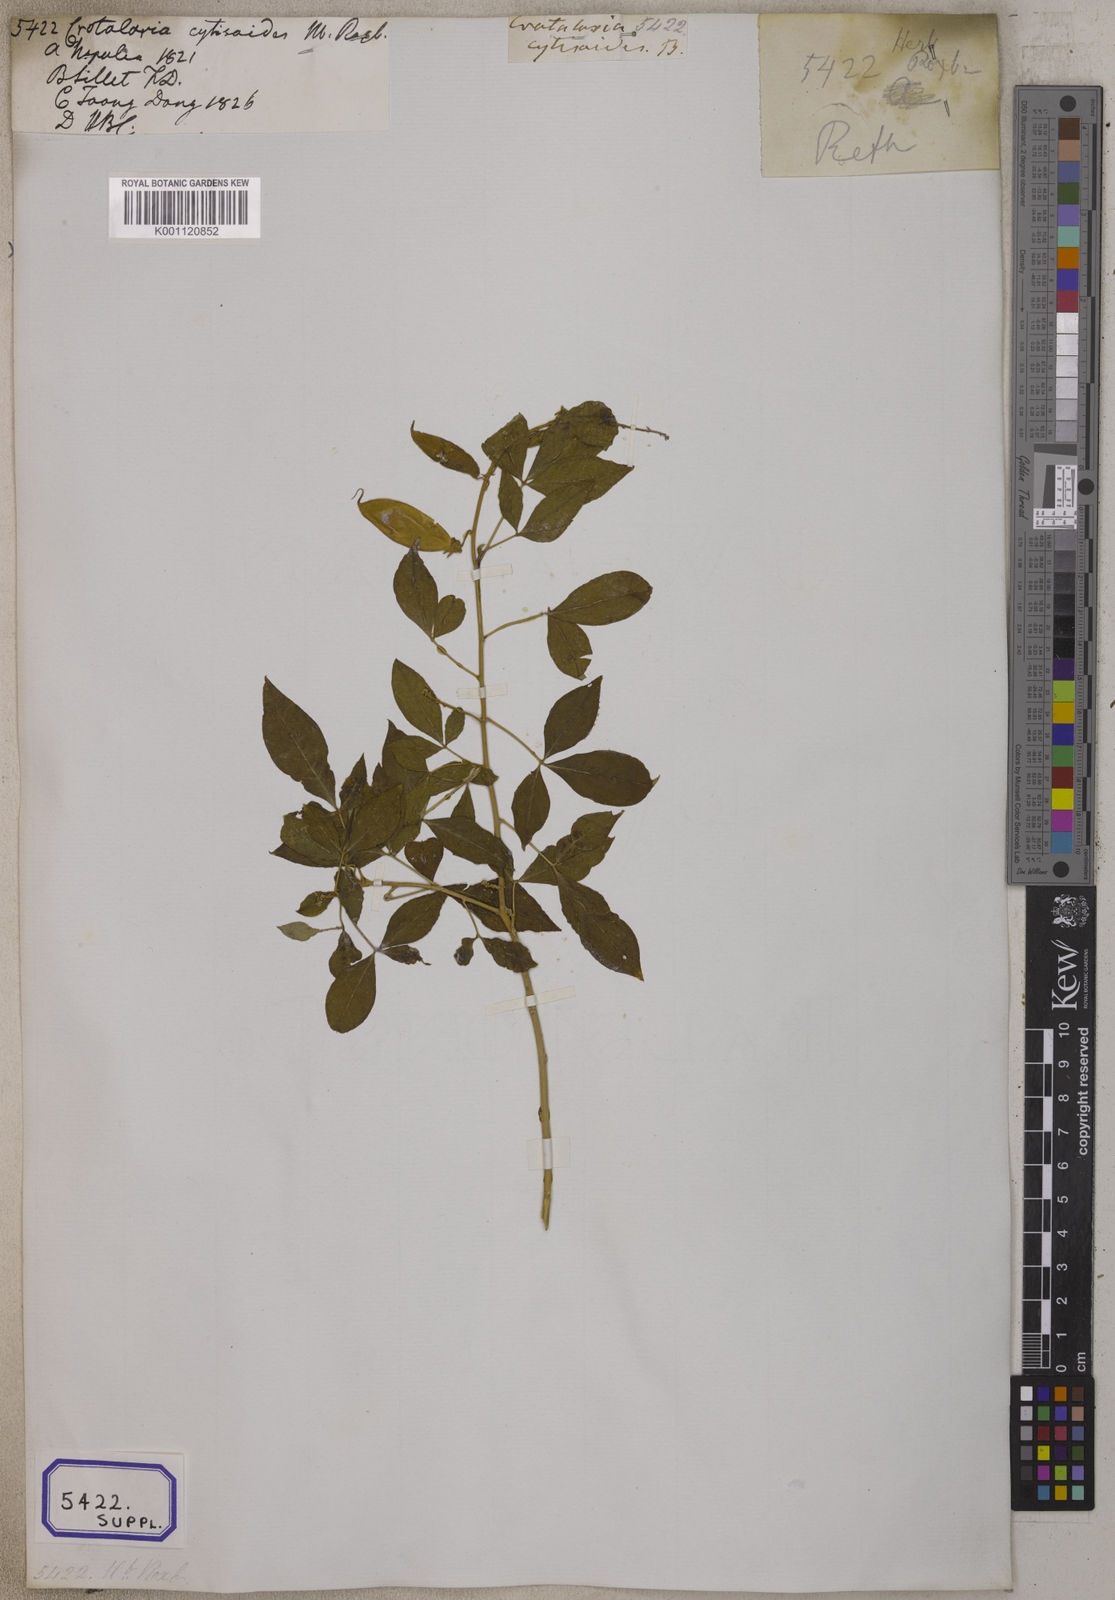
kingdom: Plantae
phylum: Tracheophyta
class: Magnoliopsida
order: Fabales
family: Fabaceae
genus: Crotalaria
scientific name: Crotalaria
